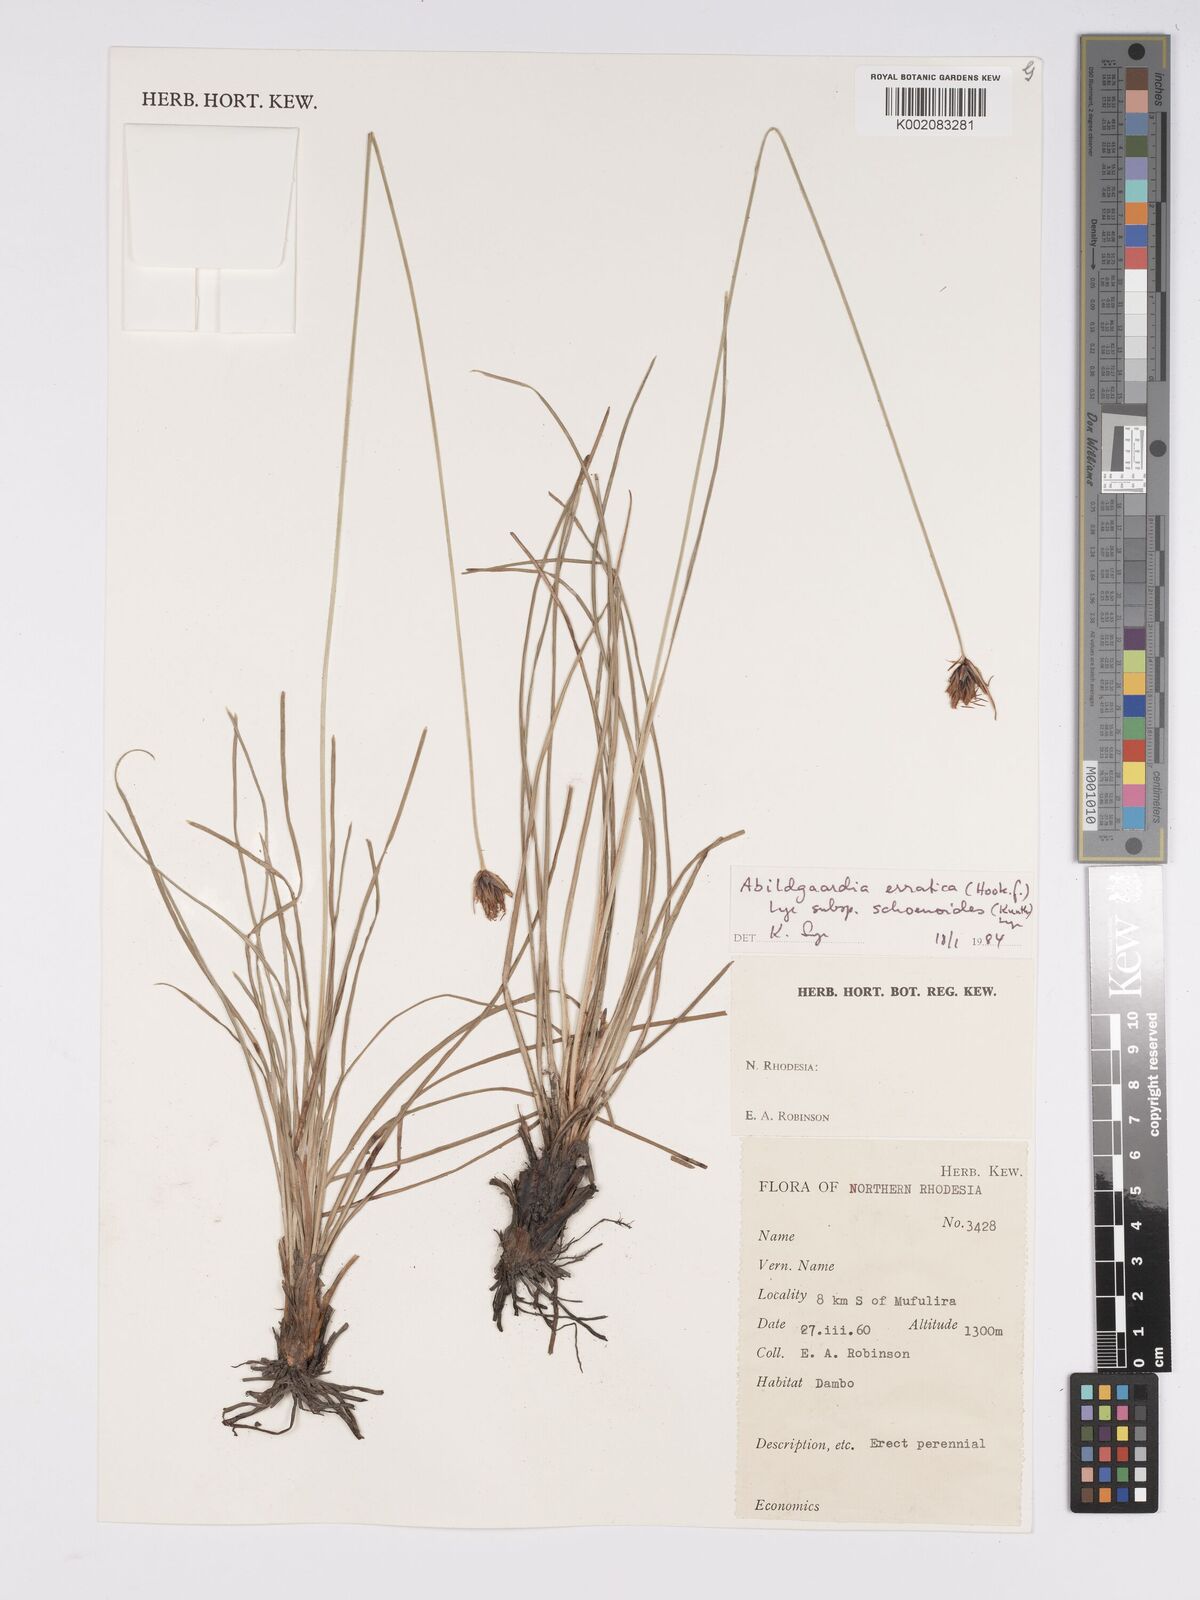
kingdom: Plantae
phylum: Tracheophyta
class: Liliopsida
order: Poales
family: Cyperaceae
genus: Bulbostylis
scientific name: Bulbostylis schoenoides
